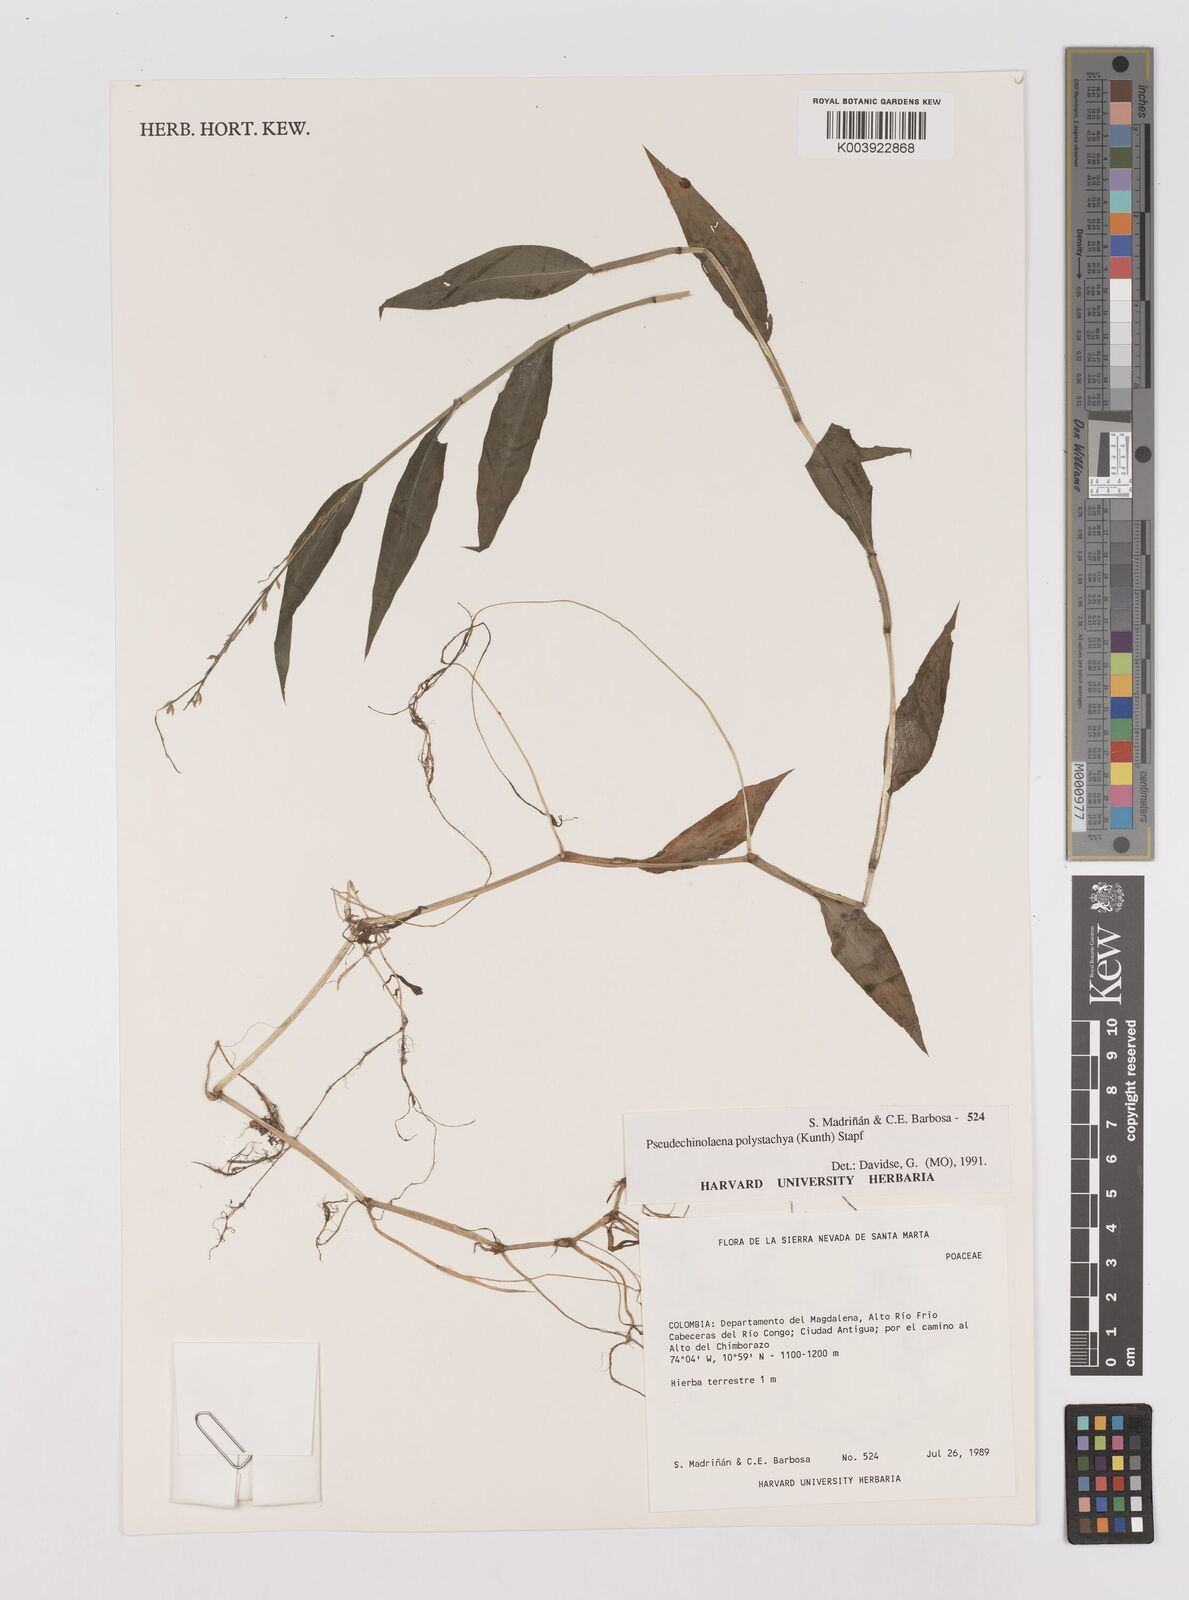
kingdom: Plantae
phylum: Tracheophyta
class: Liliopsida
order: Poales
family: Poaceae
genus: Pseudechinolaena
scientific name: Pseudechinolaena polystachya
